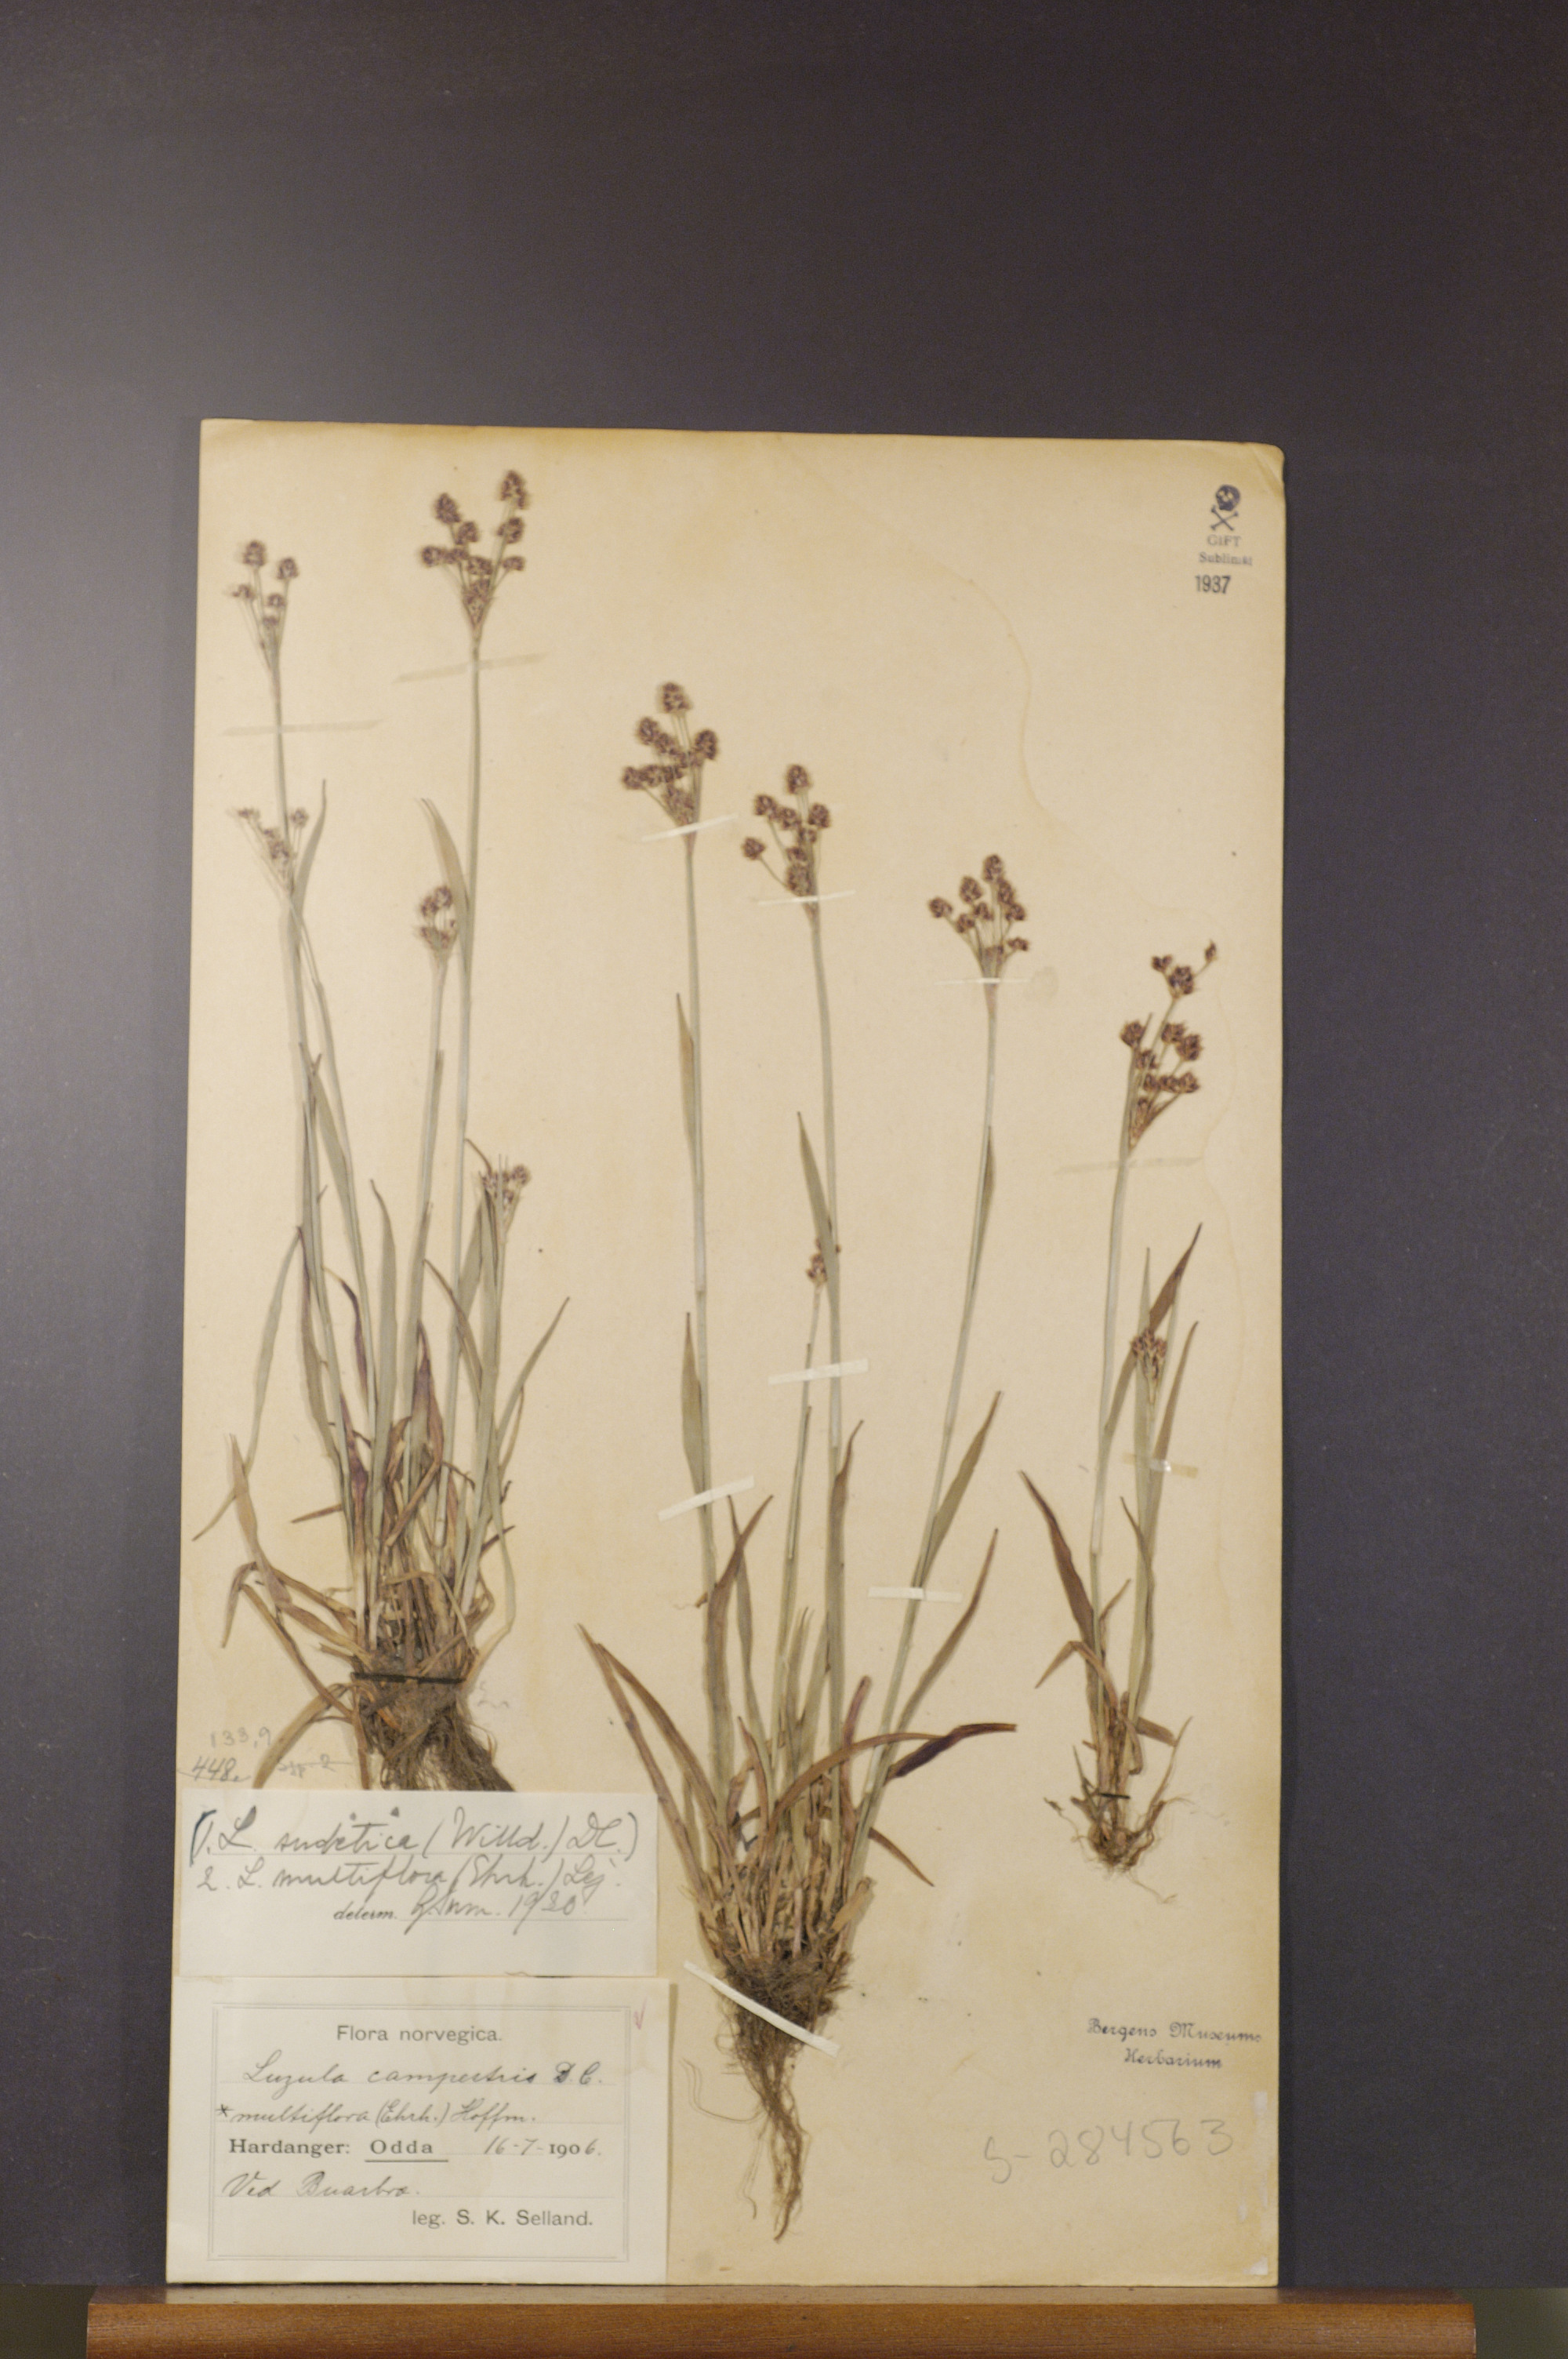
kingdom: Plantae
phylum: Tracheophyta
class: Liliopsida
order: Poales
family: Juncaceae
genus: Luzula
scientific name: Luzula multiflora
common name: Heath wood-rush
